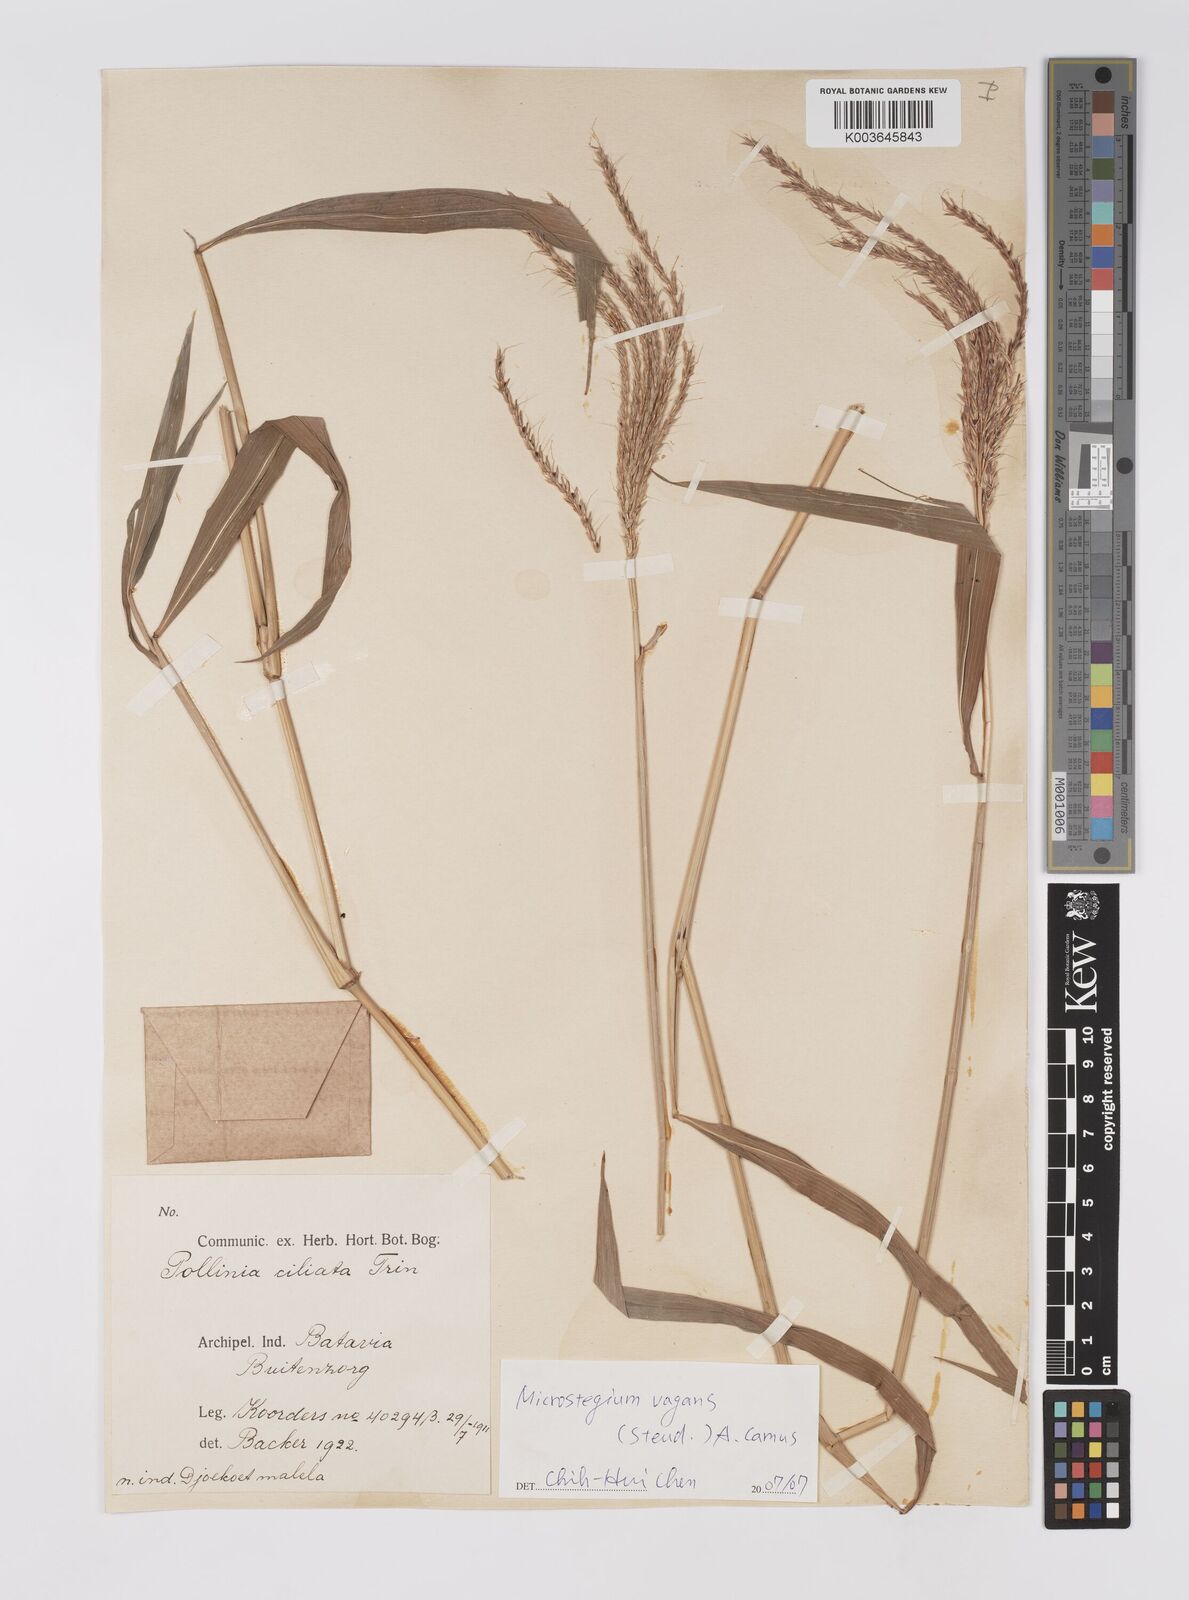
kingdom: Plantae
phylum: Tracheophyta
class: Liliopsida
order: Poales
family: Poaceae
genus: Microstegium
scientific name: Microstegium fasciculatum
